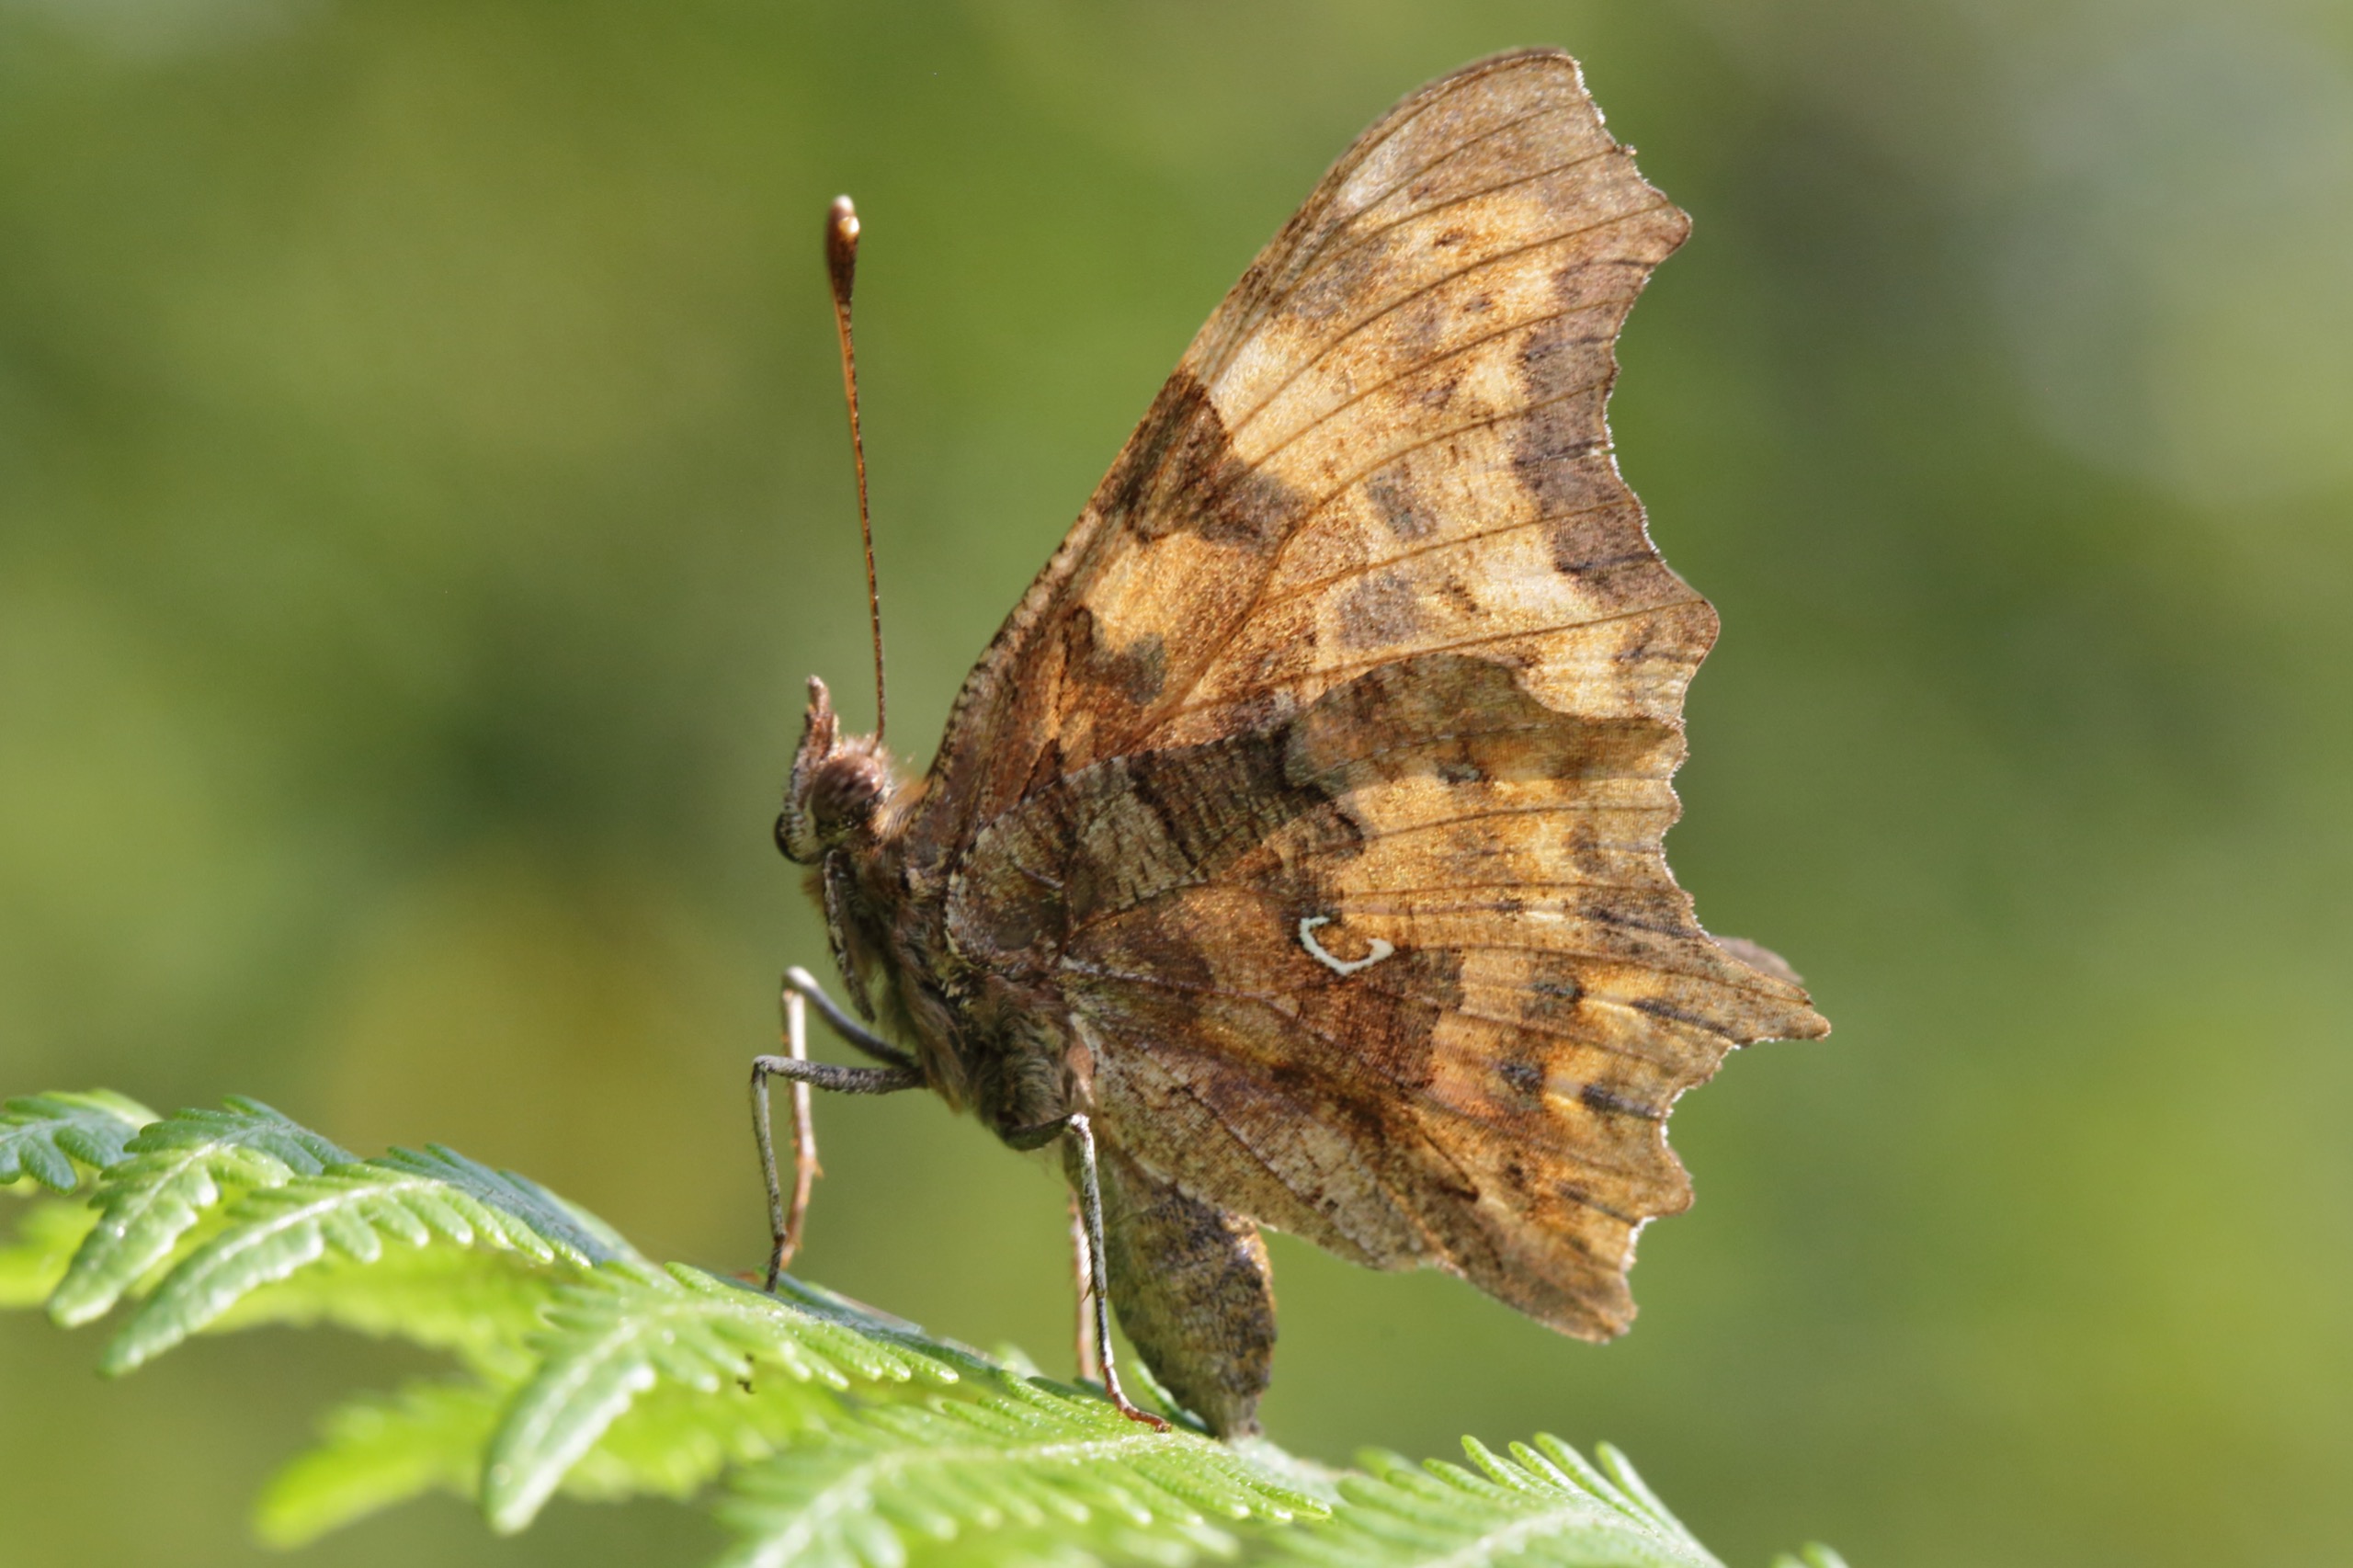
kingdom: Animalia
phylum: Arthropoda
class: Insecta
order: Lepidoptera
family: Nymphalidae
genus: Polygonia
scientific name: Polygonia c-album
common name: Det hvide C
